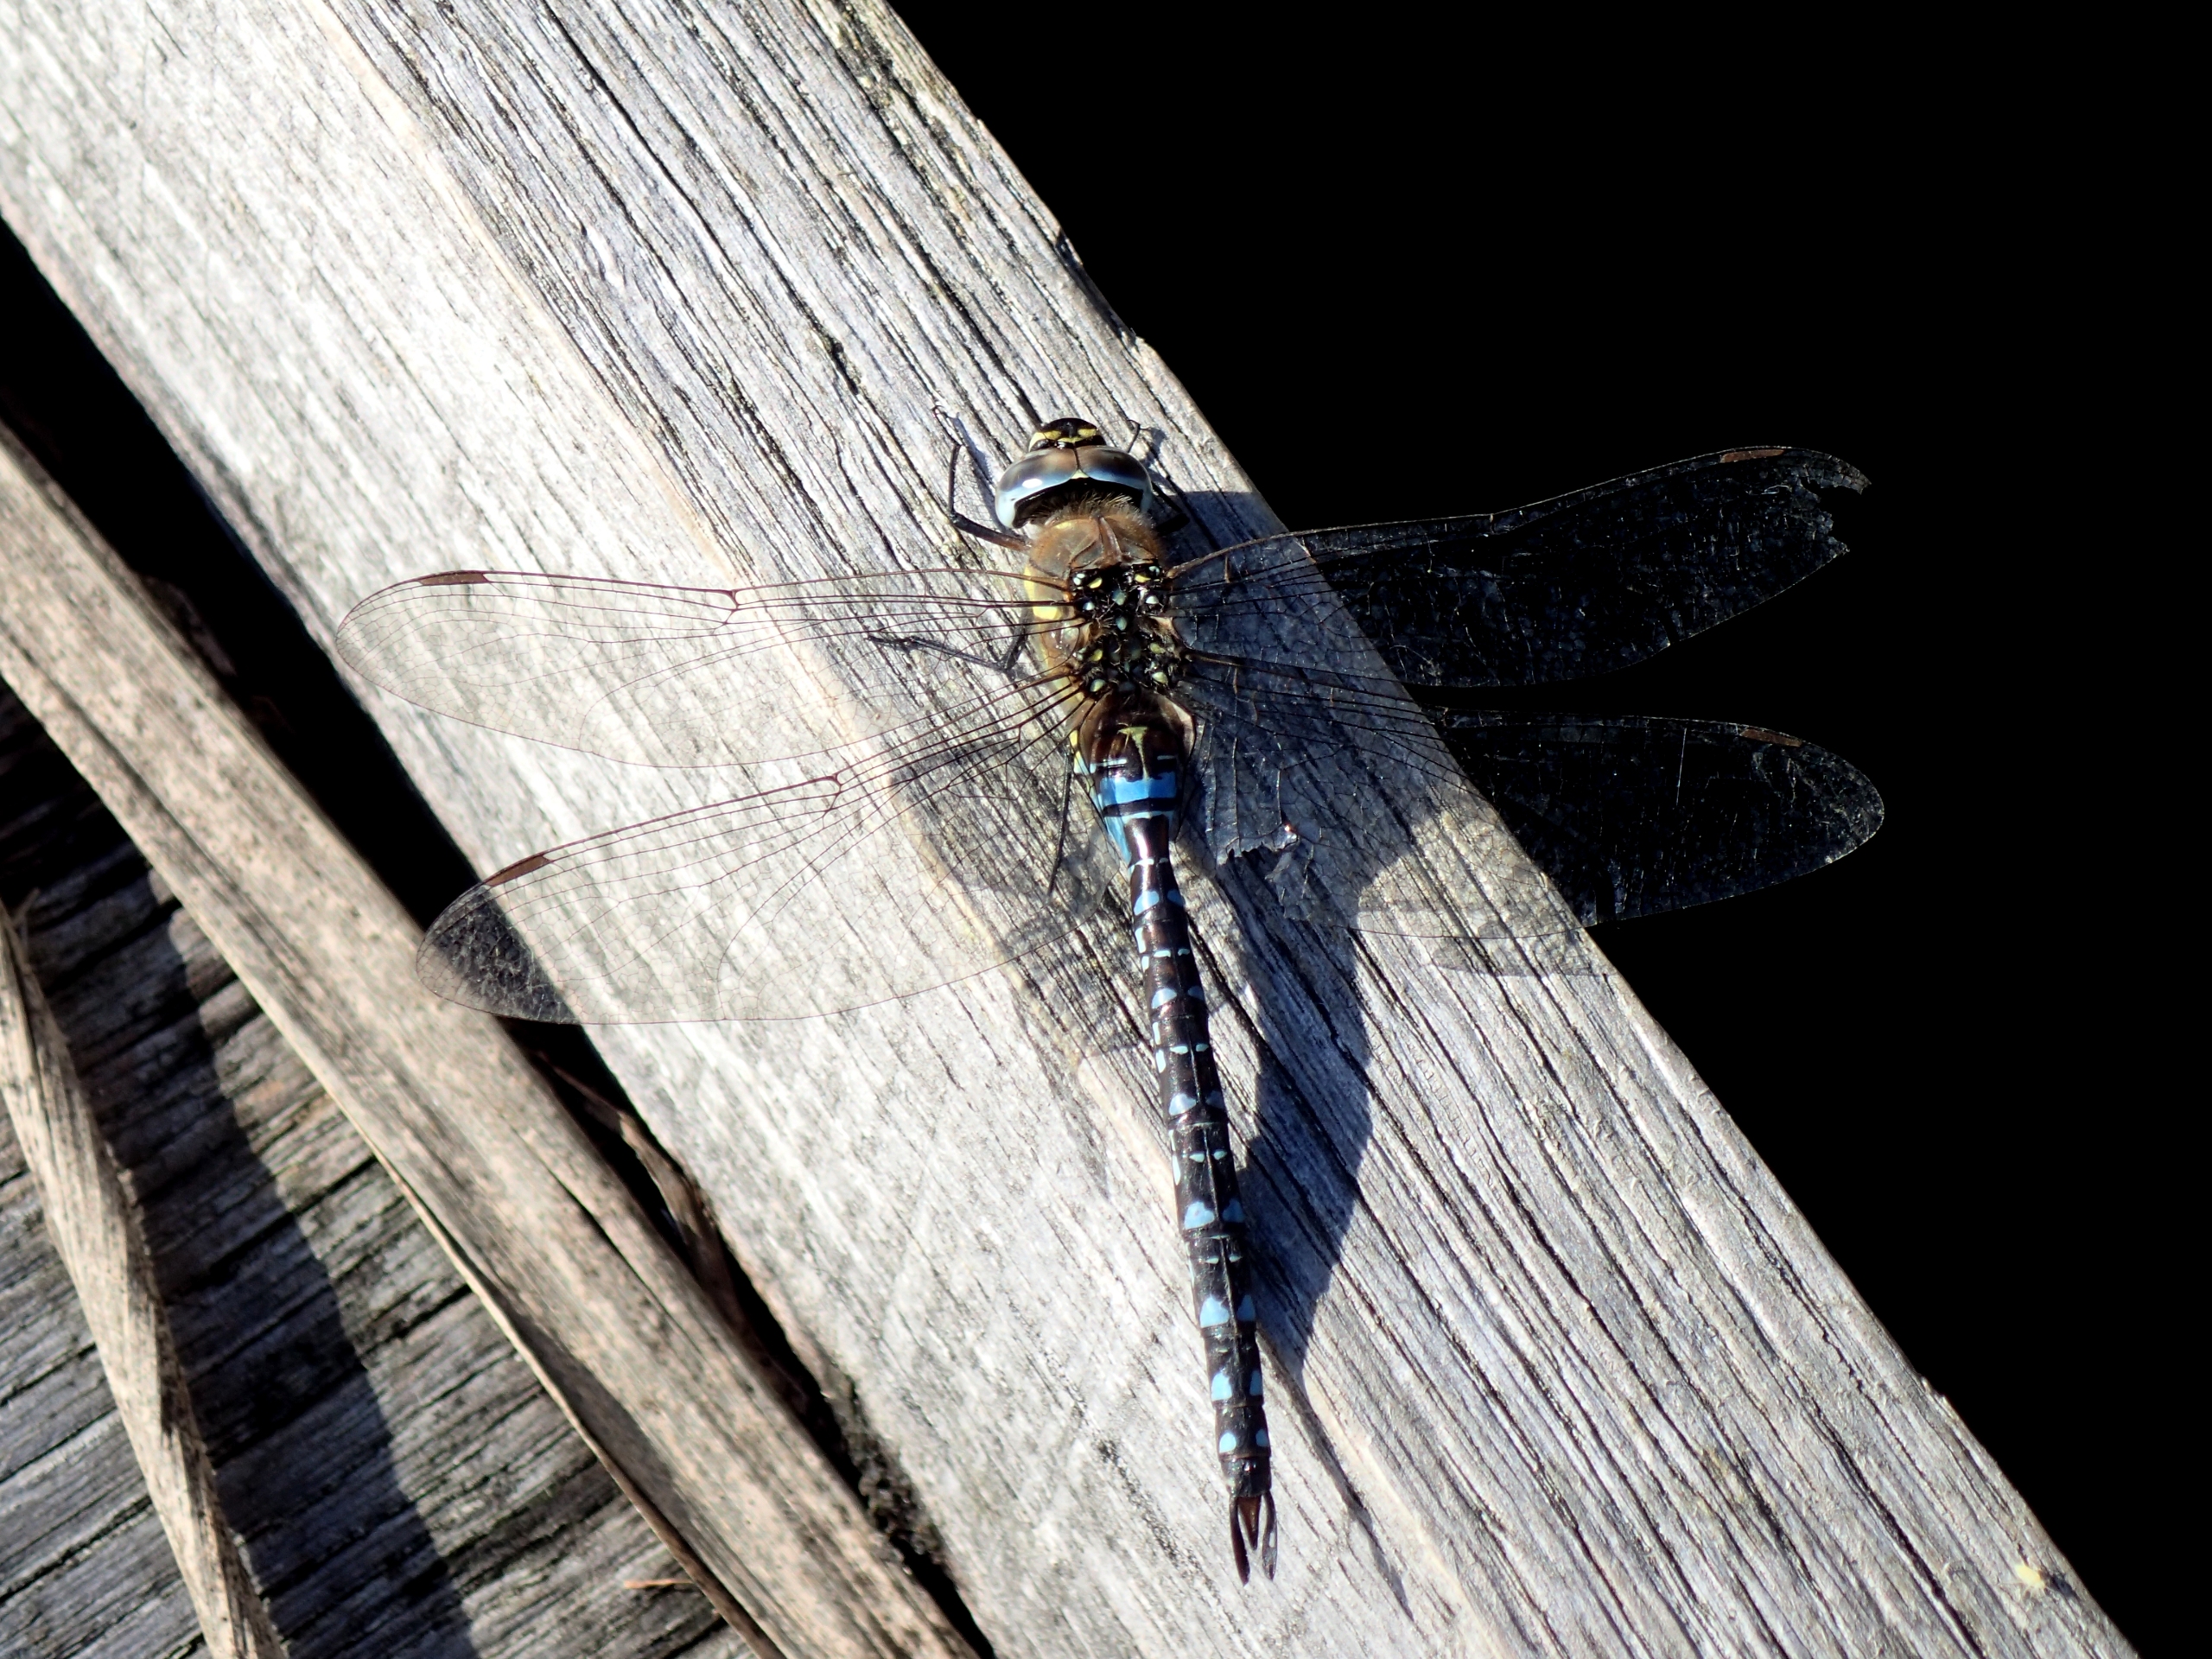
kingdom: Animalia
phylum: Arthropoda
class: Insecta
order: Odonata
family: Aeshnidae
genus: Aeshna
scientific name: Aeshna mixta
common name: Efterårs-mosaikguldsmed
